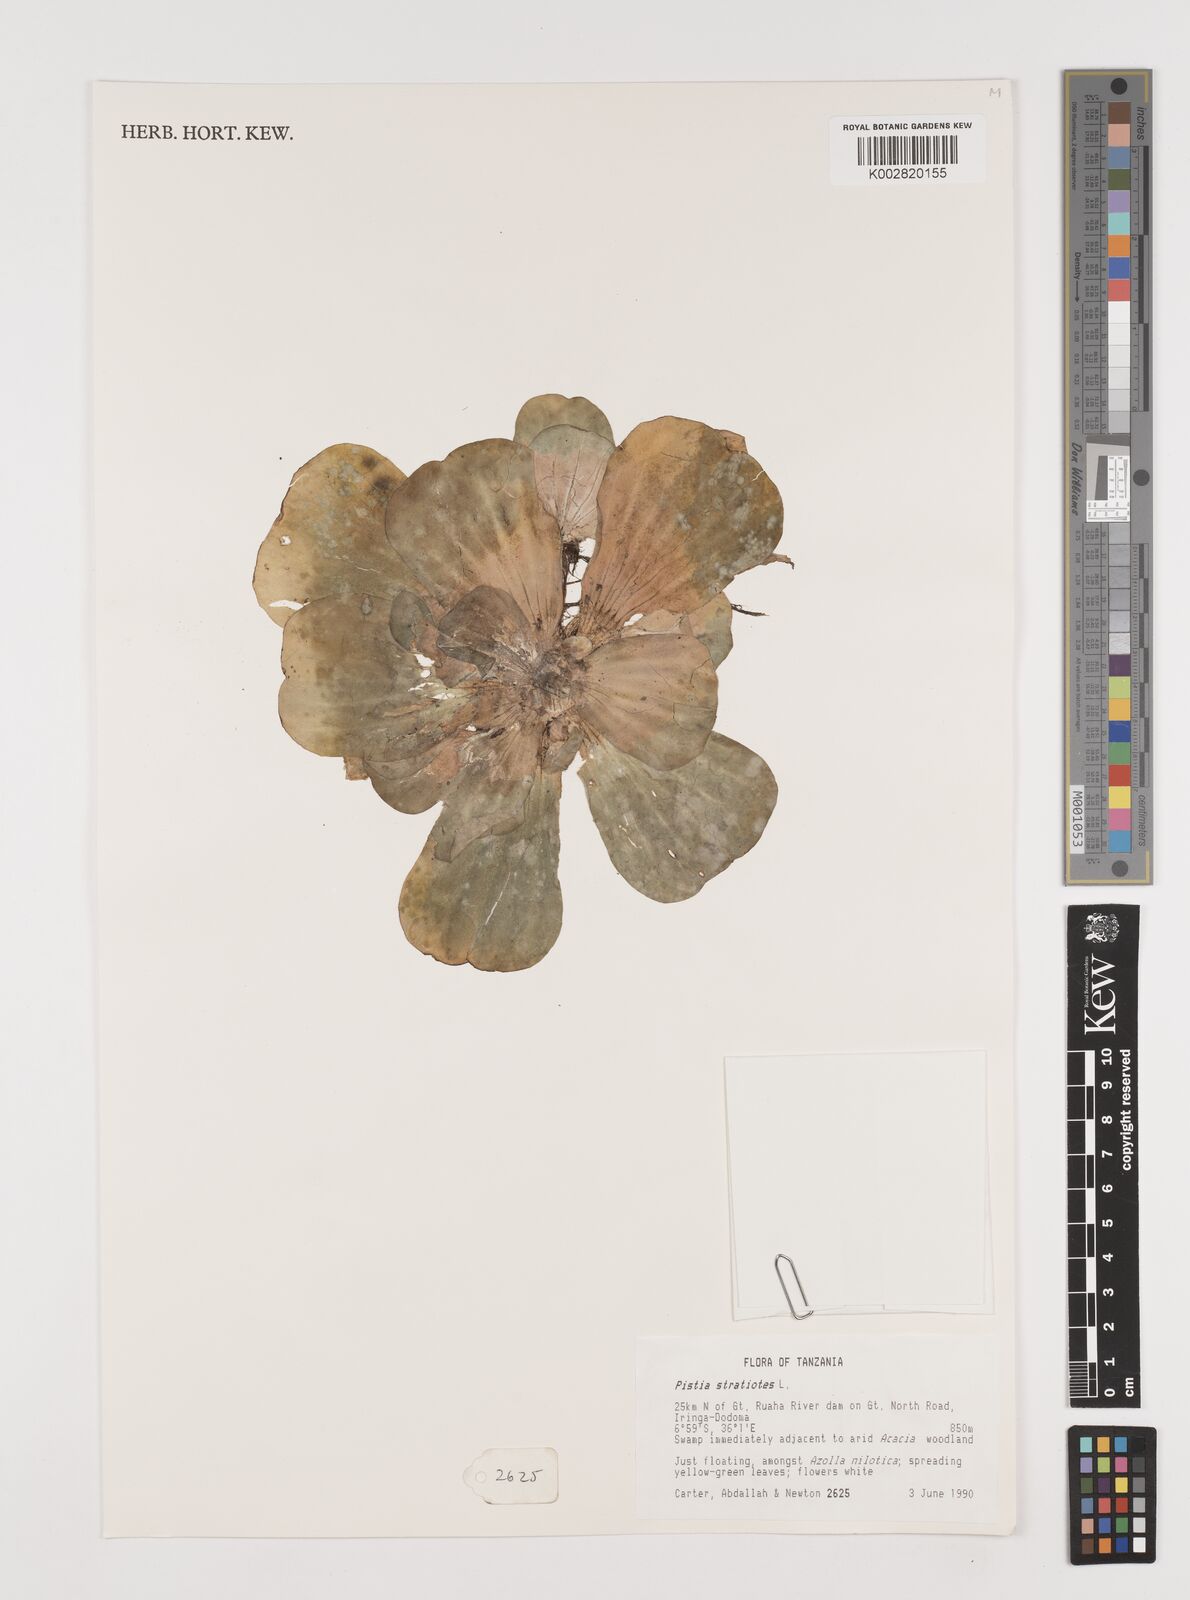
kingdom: Plantae
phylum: Tracheophyta
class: Liliopsida
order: Alismatales
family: Araceae
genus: Pistia
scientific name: Pistia stratiotes
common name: Water lettuce
